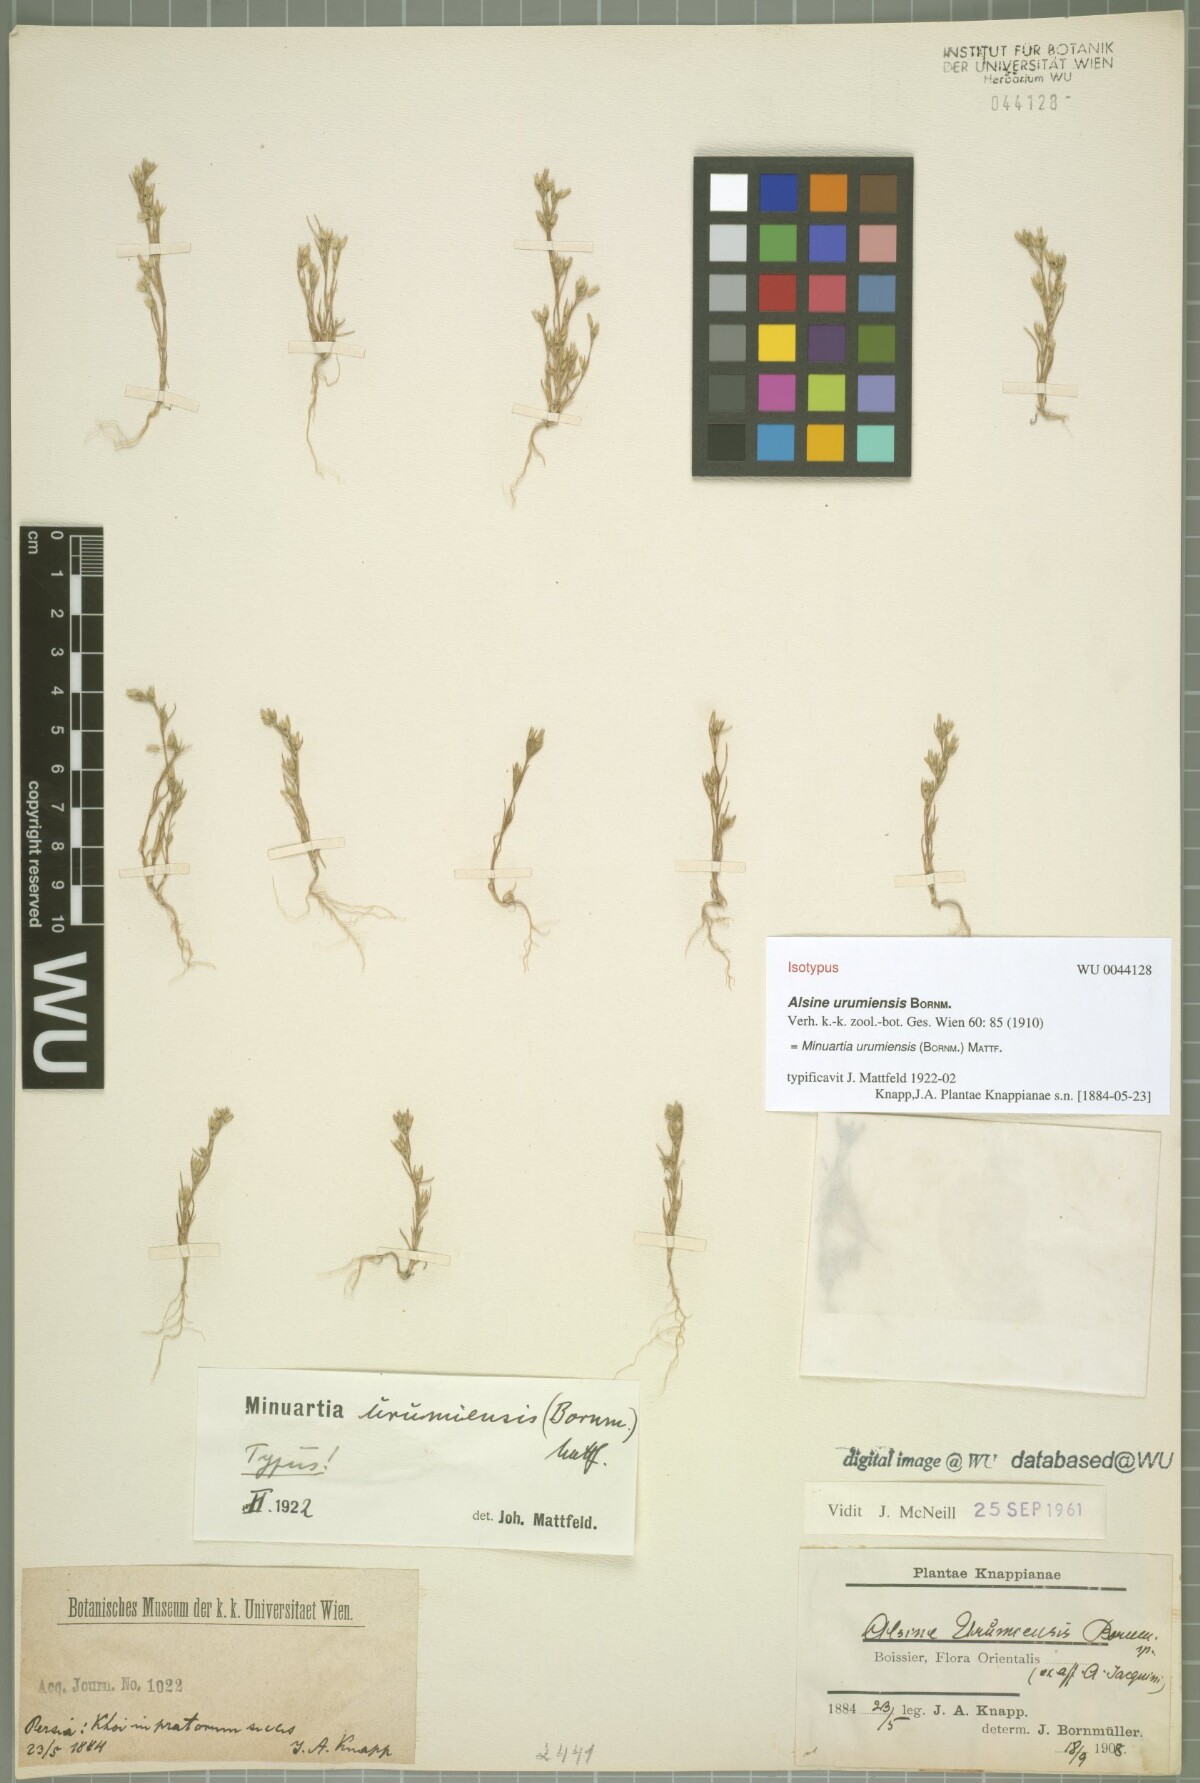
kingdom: Plantae
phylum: Tracheophyta
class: Magnoliopsida
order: Caryophyllales
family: Caryophyllaceae
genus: Sabulina
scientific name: Sabulina urumiensis
